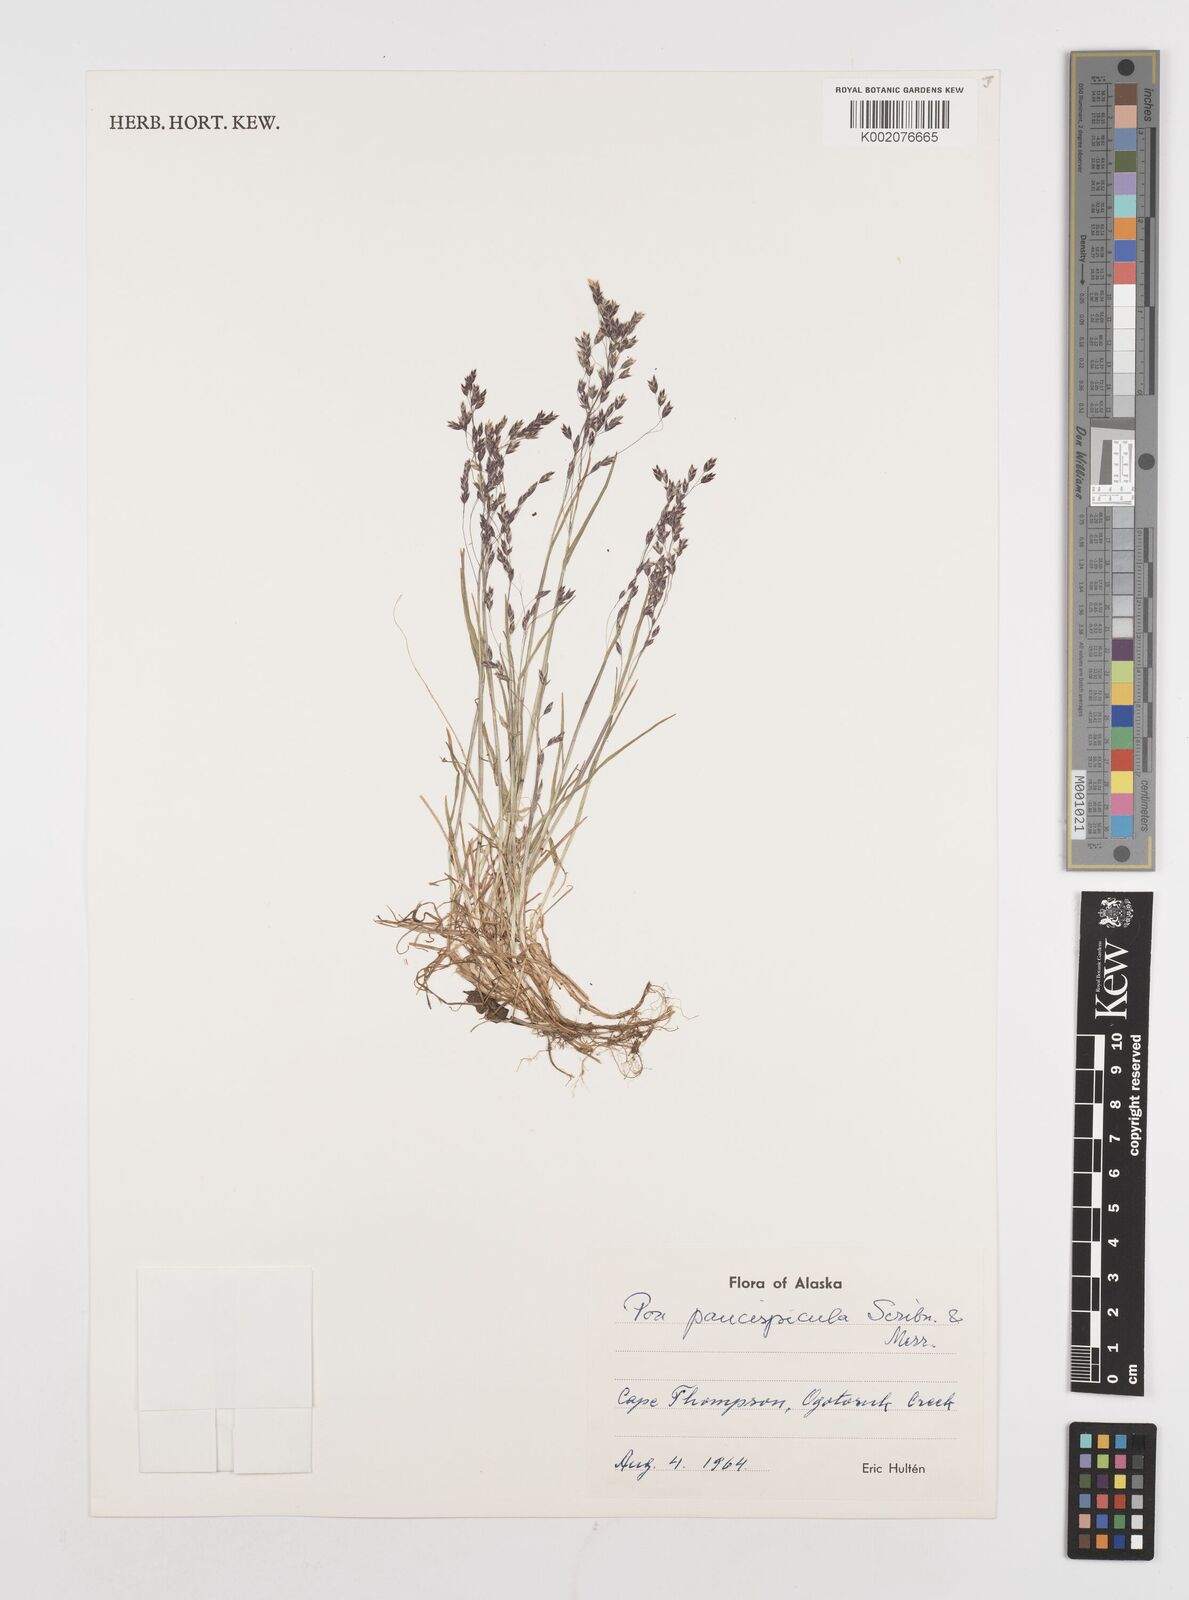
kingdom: Plantae
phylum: Tracheophyta
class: Liliopsida
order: Poales
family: Poaceae
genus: Poa
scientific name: Poa paucispicula
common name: Alaska bluegrass
